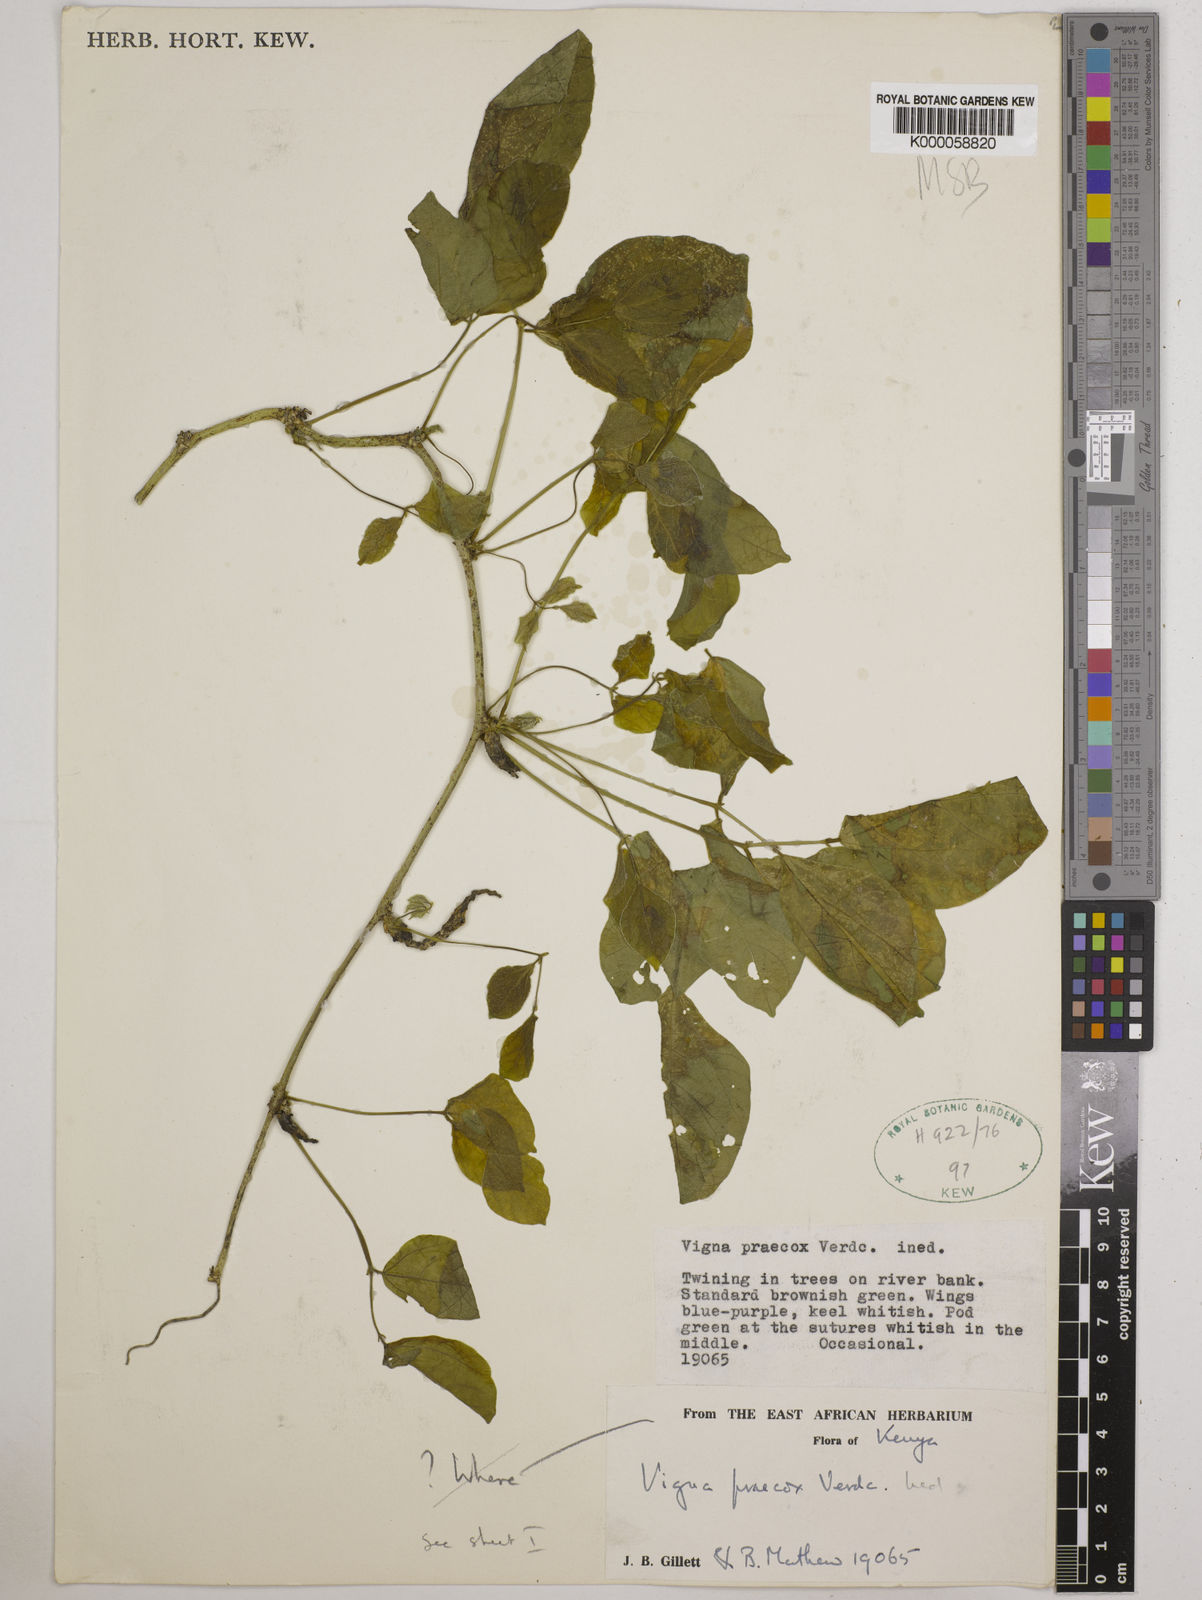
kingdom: Plantae
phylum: Tracheophyta
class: Magnoliopsida
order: Fabales
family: Fabaceae
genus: Wajira
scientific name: Wajira praecox
